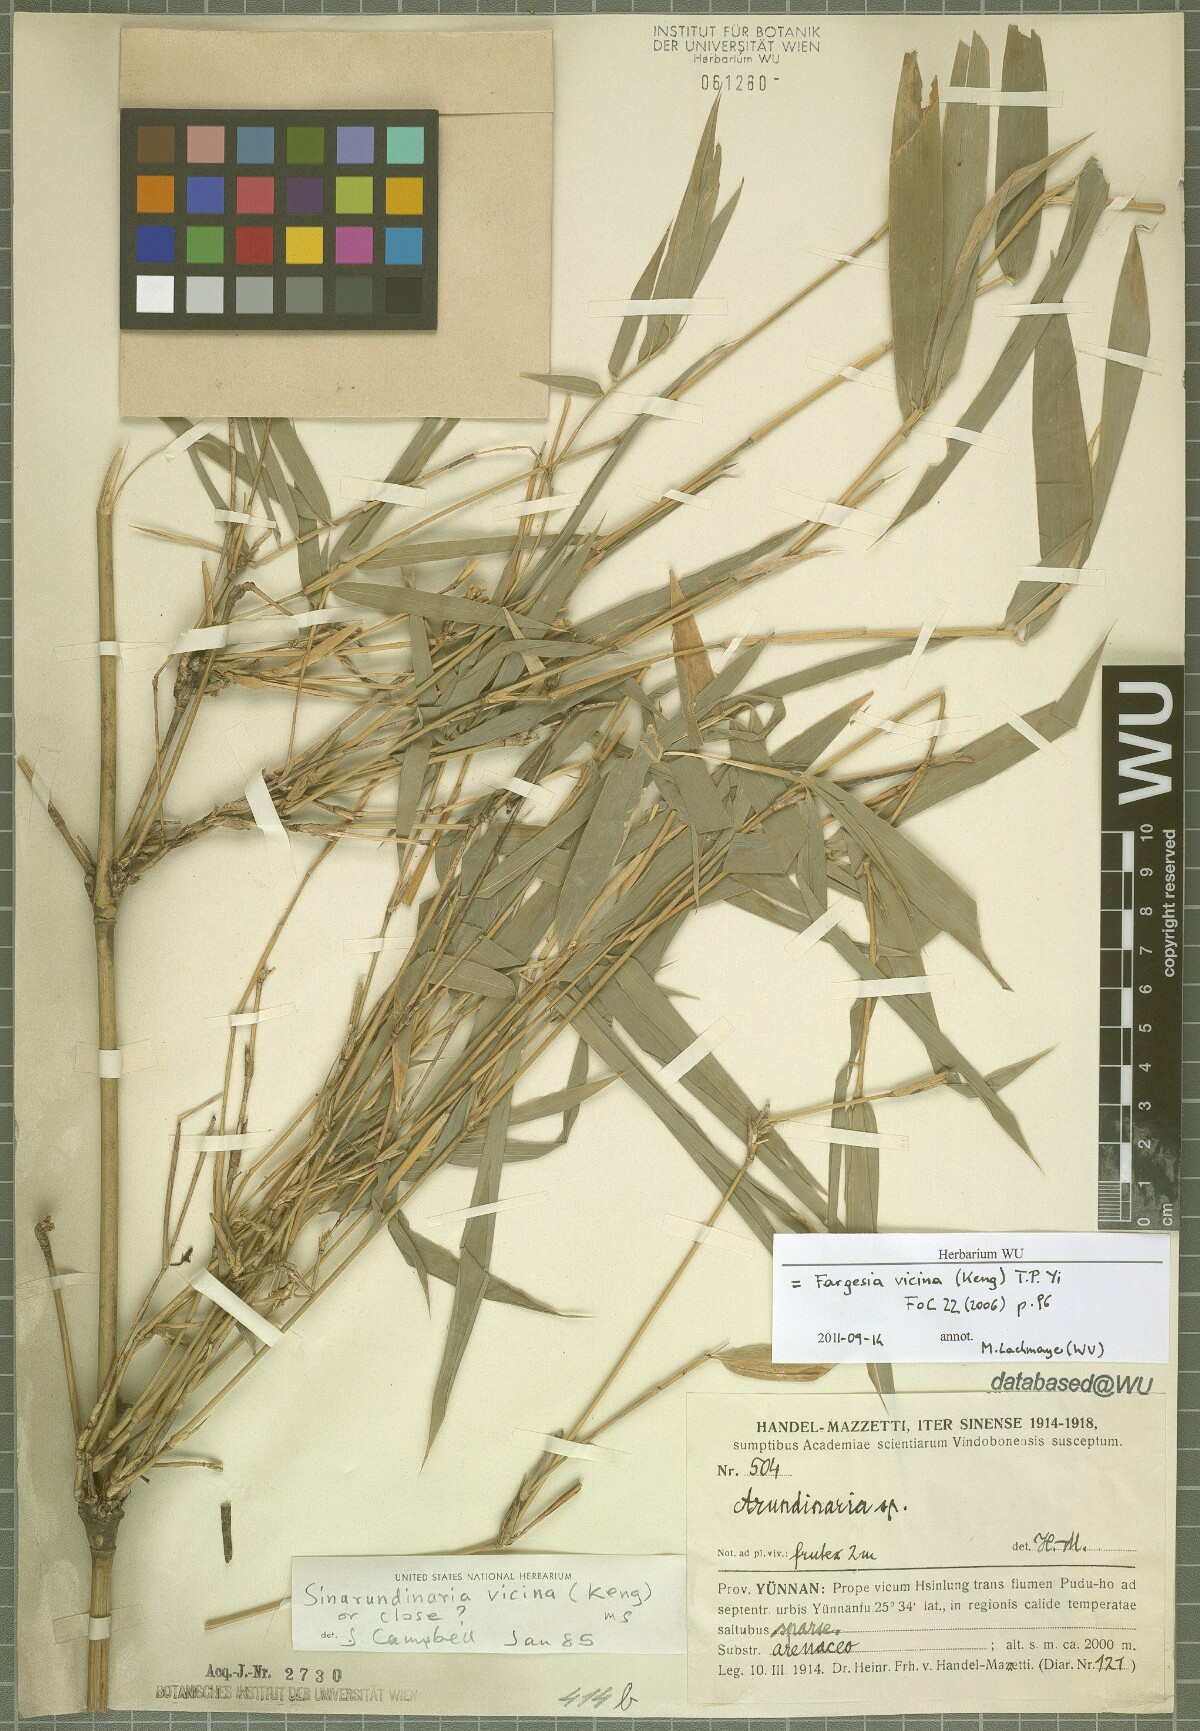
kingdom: Plantae
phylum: Tracheophyta
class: Liliopsida
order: Poales
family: Poaceae
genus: Fargesia
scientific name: Fargesia vicina
